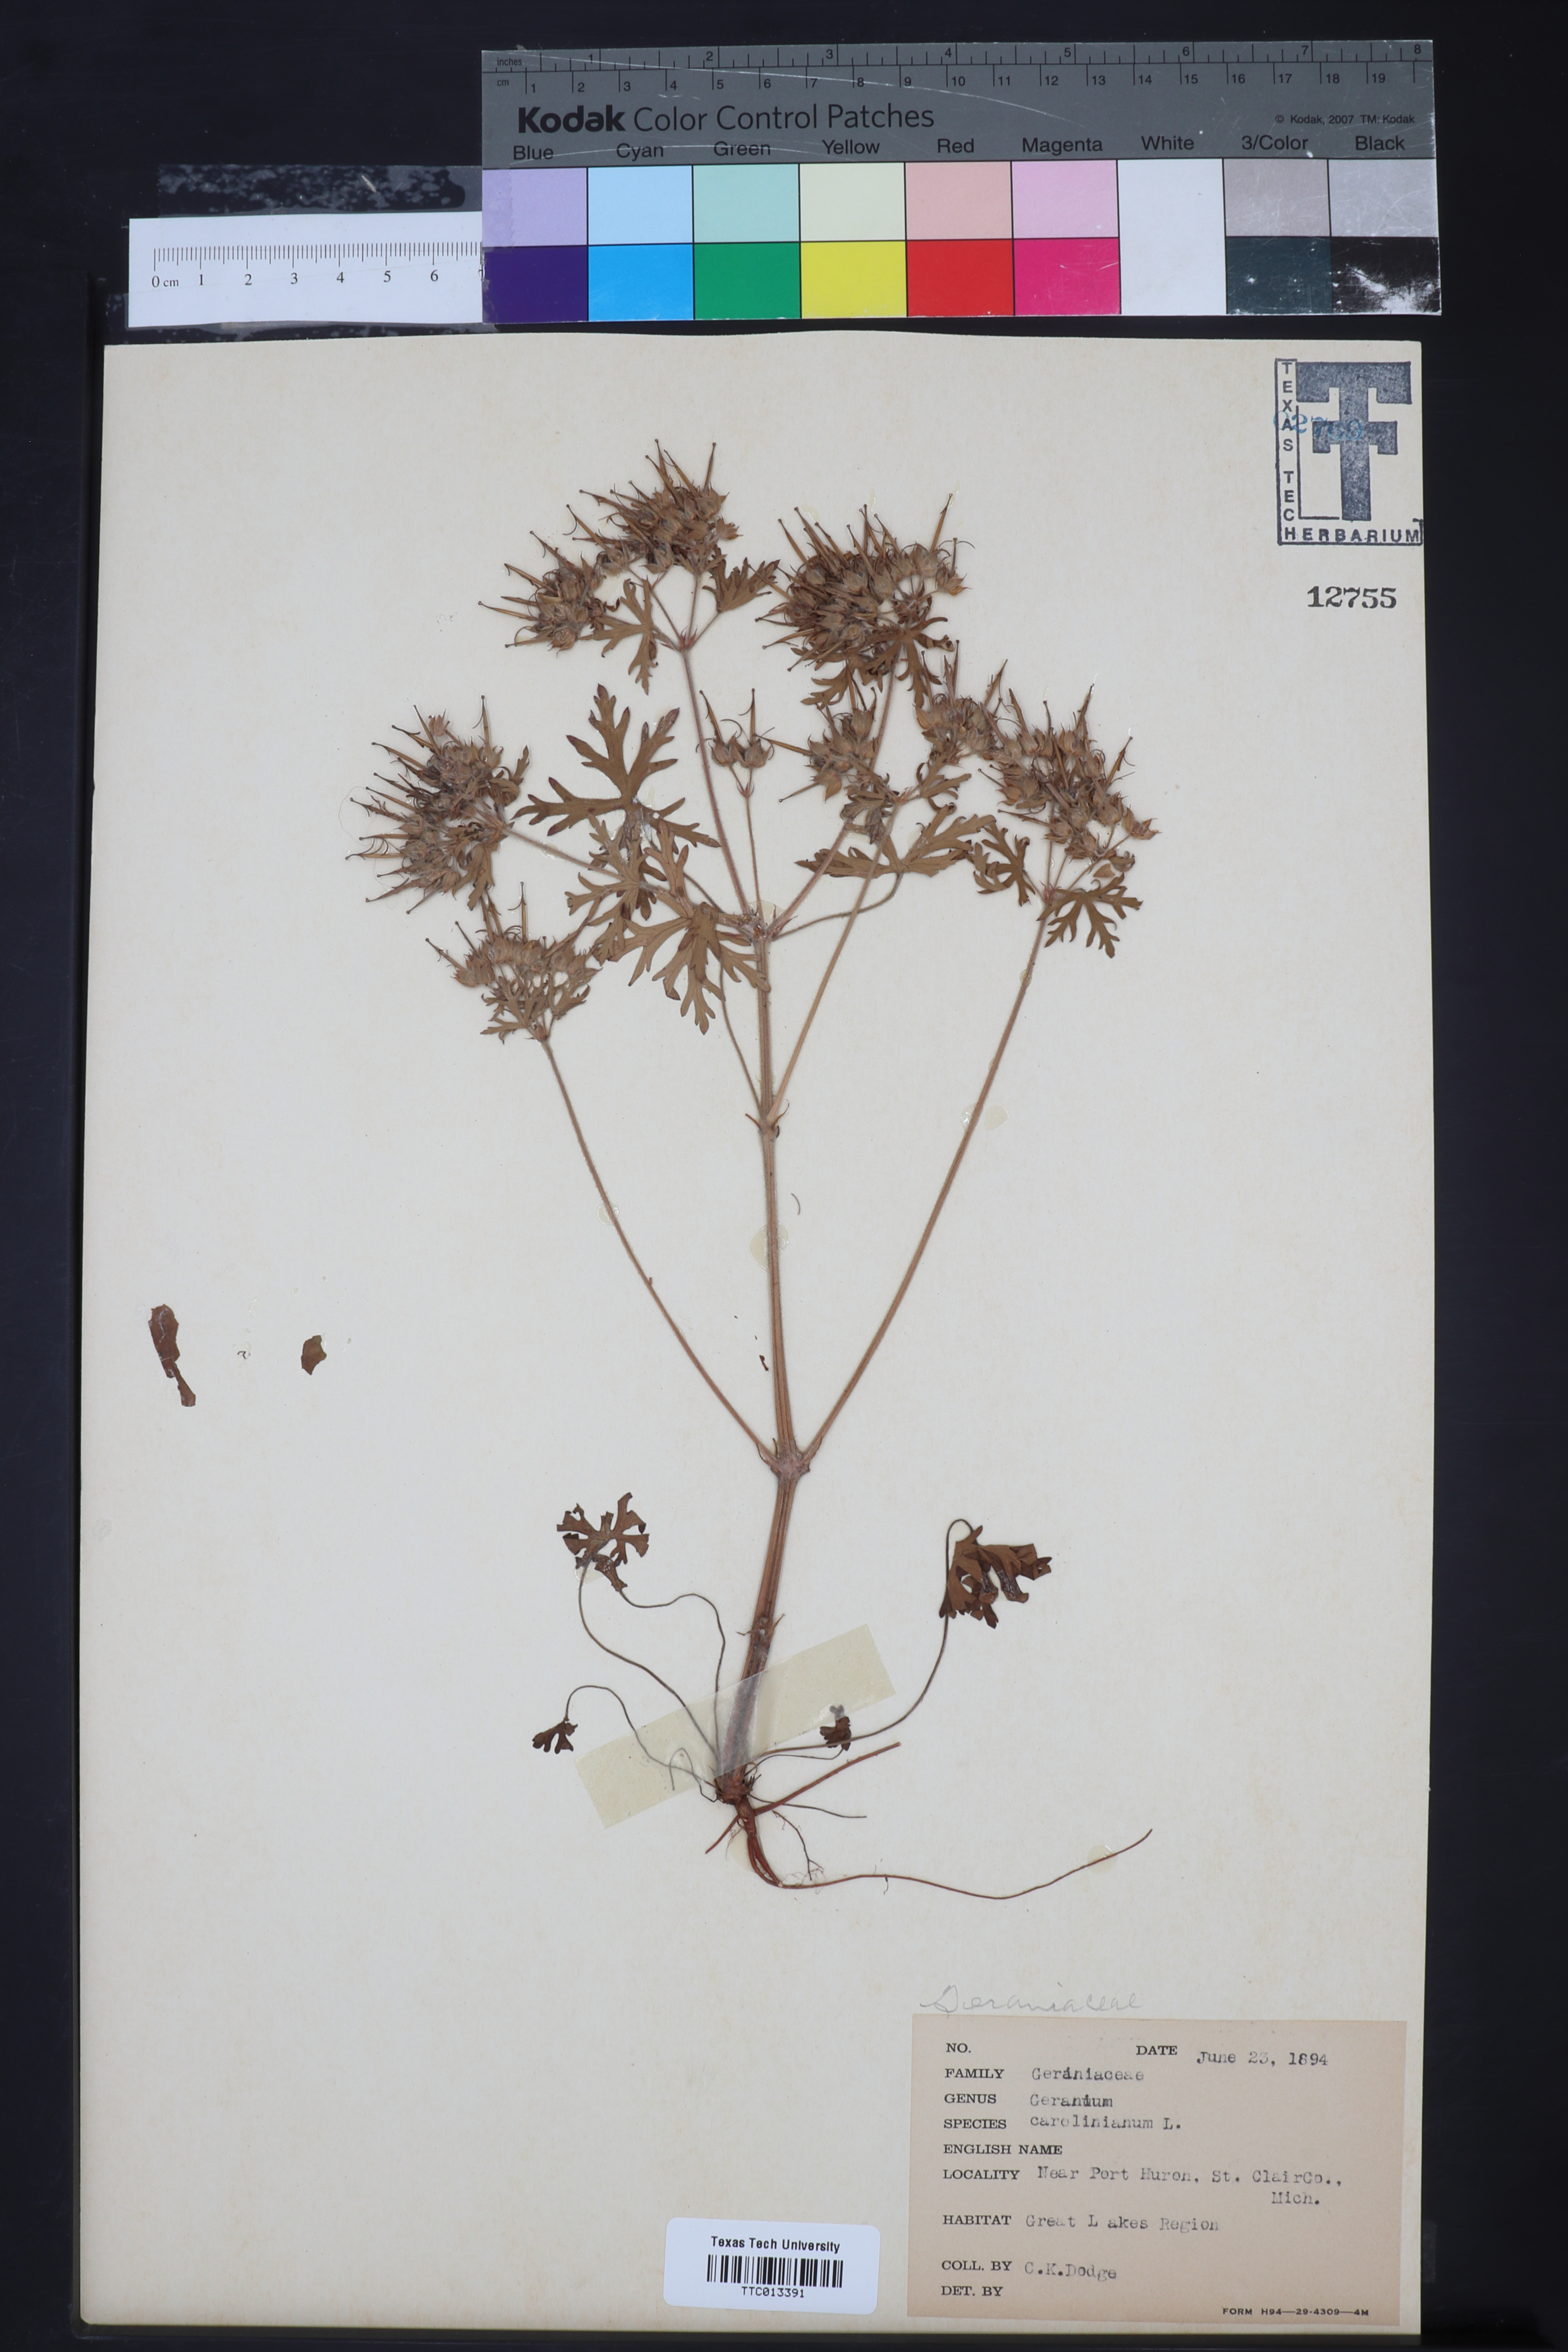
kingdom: Plantae
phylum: Tracheophyta
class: Magnoliopsida
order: Geraniales
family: Geraniaceae
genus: Geranium
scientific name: Geranium carolinianum
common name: Carolina crane's-bill
